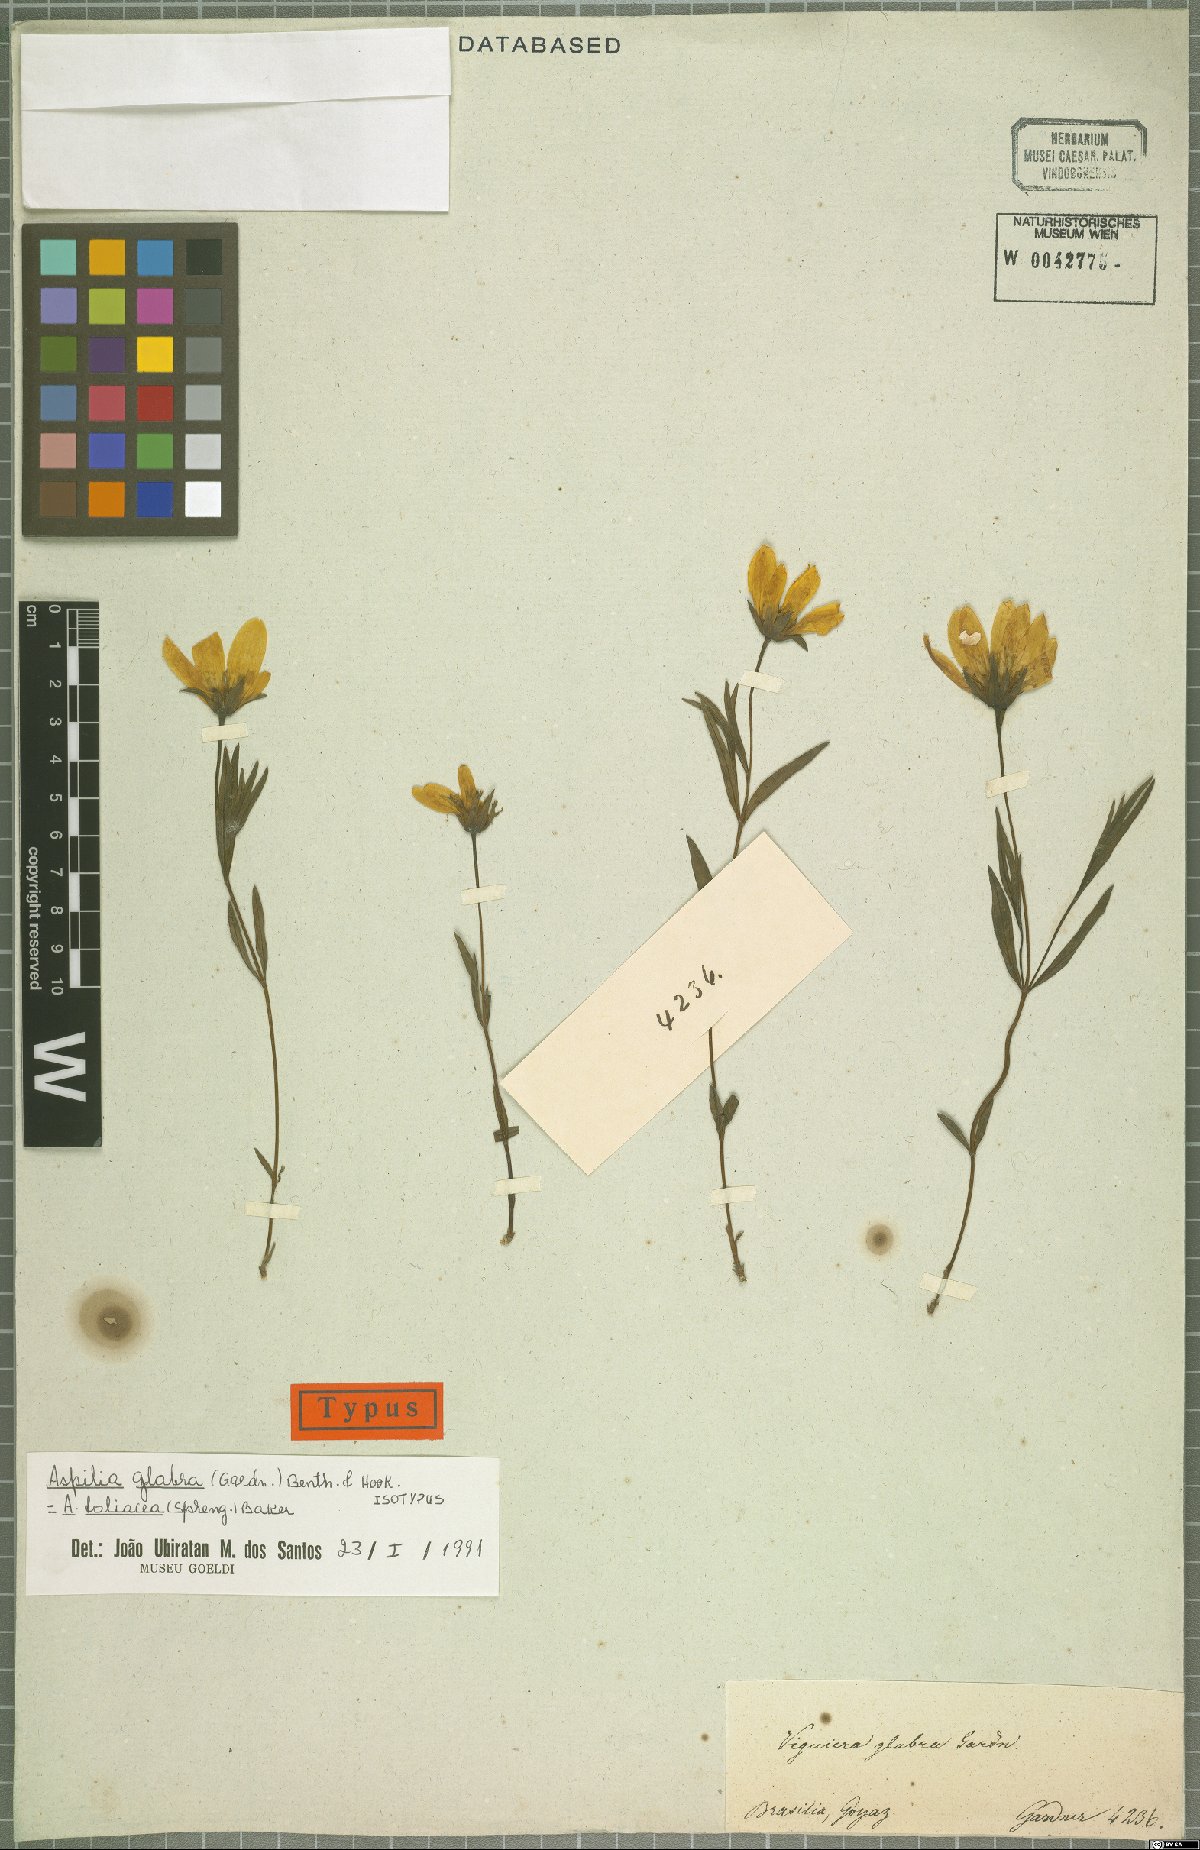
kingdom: Plantae
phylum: Tracheophyta
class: Magnoliopsida
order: Asterales
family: Asteraceae
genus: Wedelia
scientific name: Wedelia foliacea
